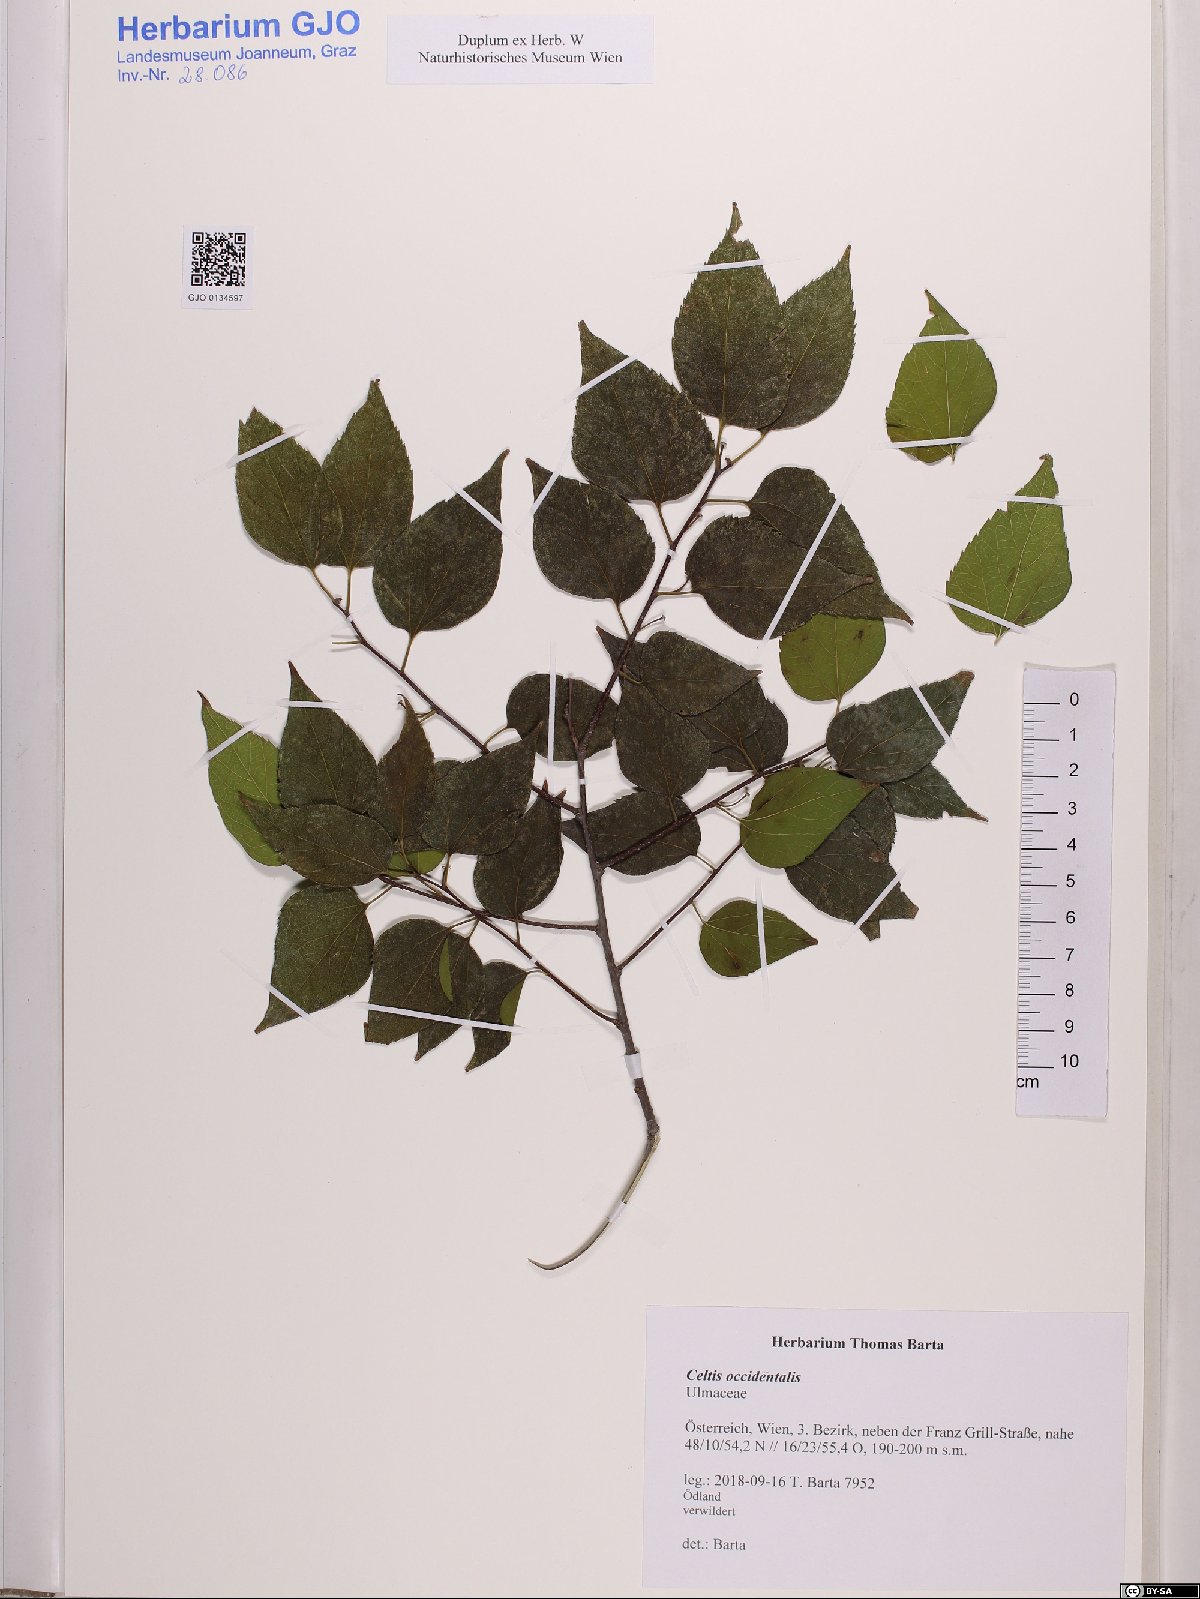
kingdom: Plantae
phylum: Tracheophyta
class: Magnoliopsida
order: Rosales
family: Cannabaceae
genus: Celtis
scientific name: Celtis occidentalis
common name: Common hackberry
